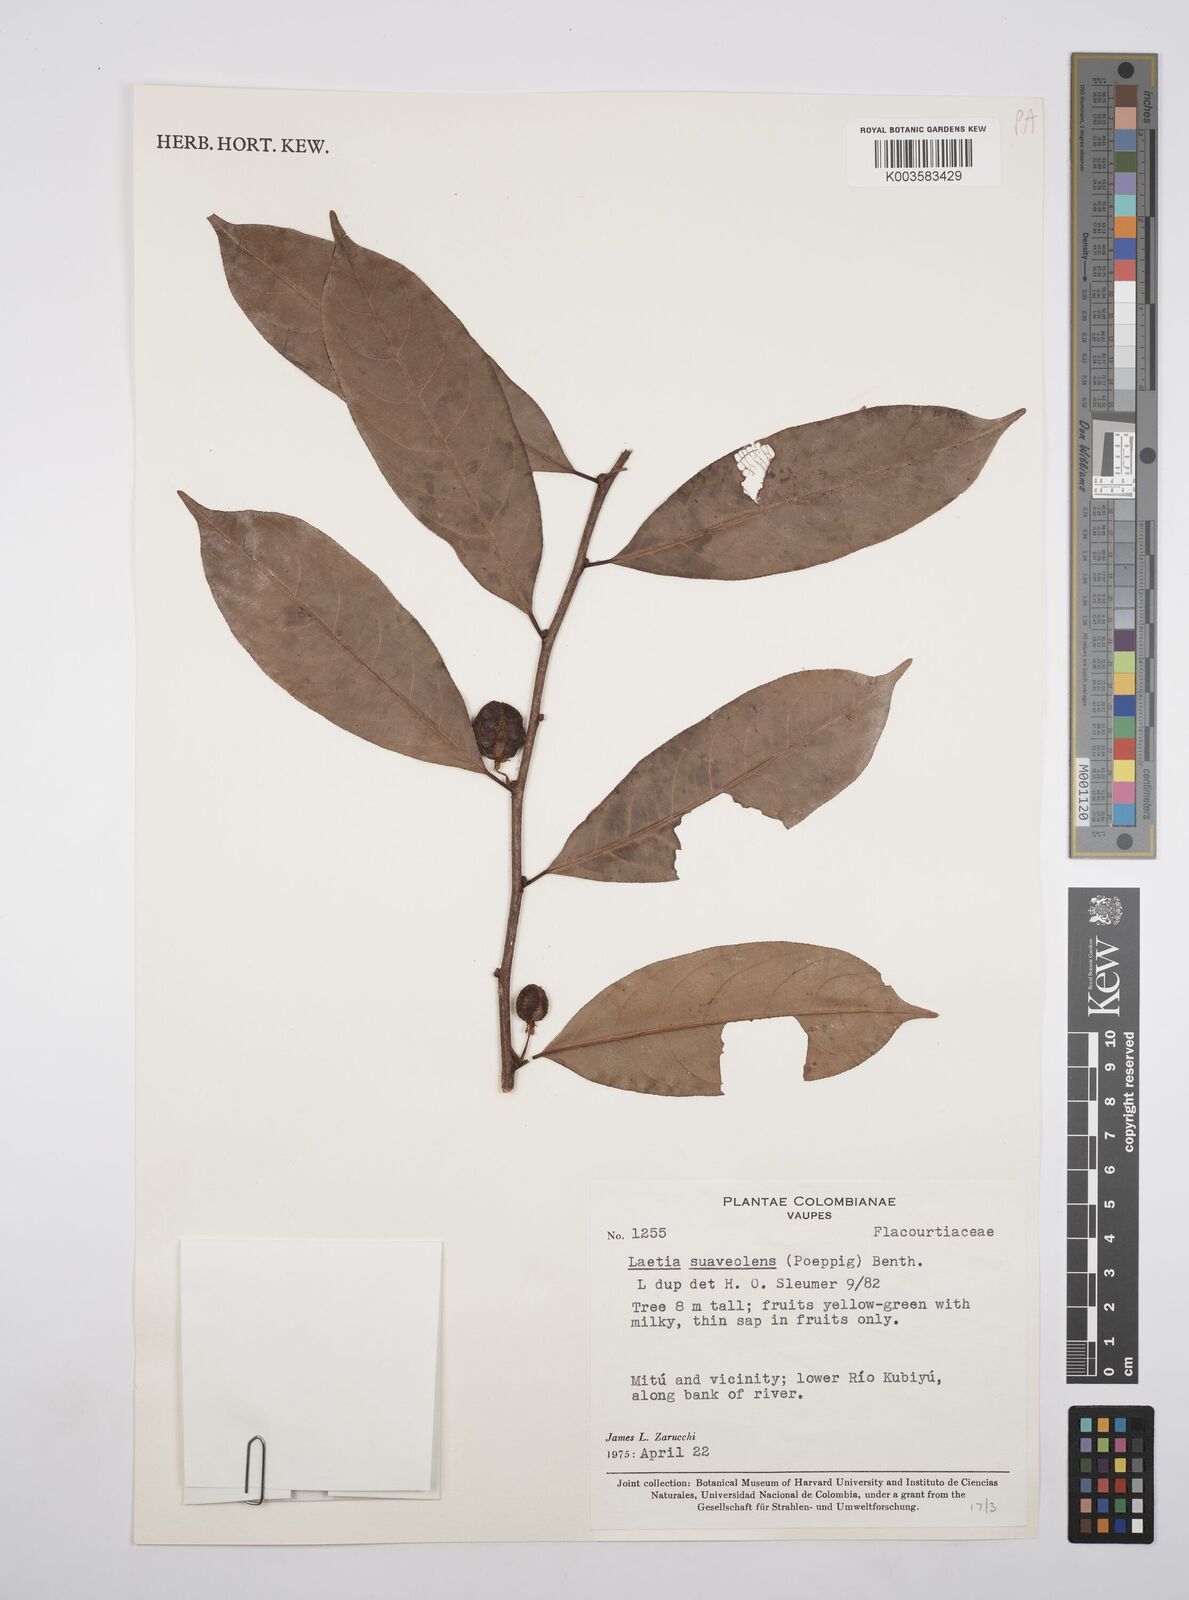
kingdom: Plantae
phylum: Tracheophyta
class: Magnoliopsida
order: Malpighiales
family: Salicaceae
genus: Casearia
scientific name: Casearia suaveolens
